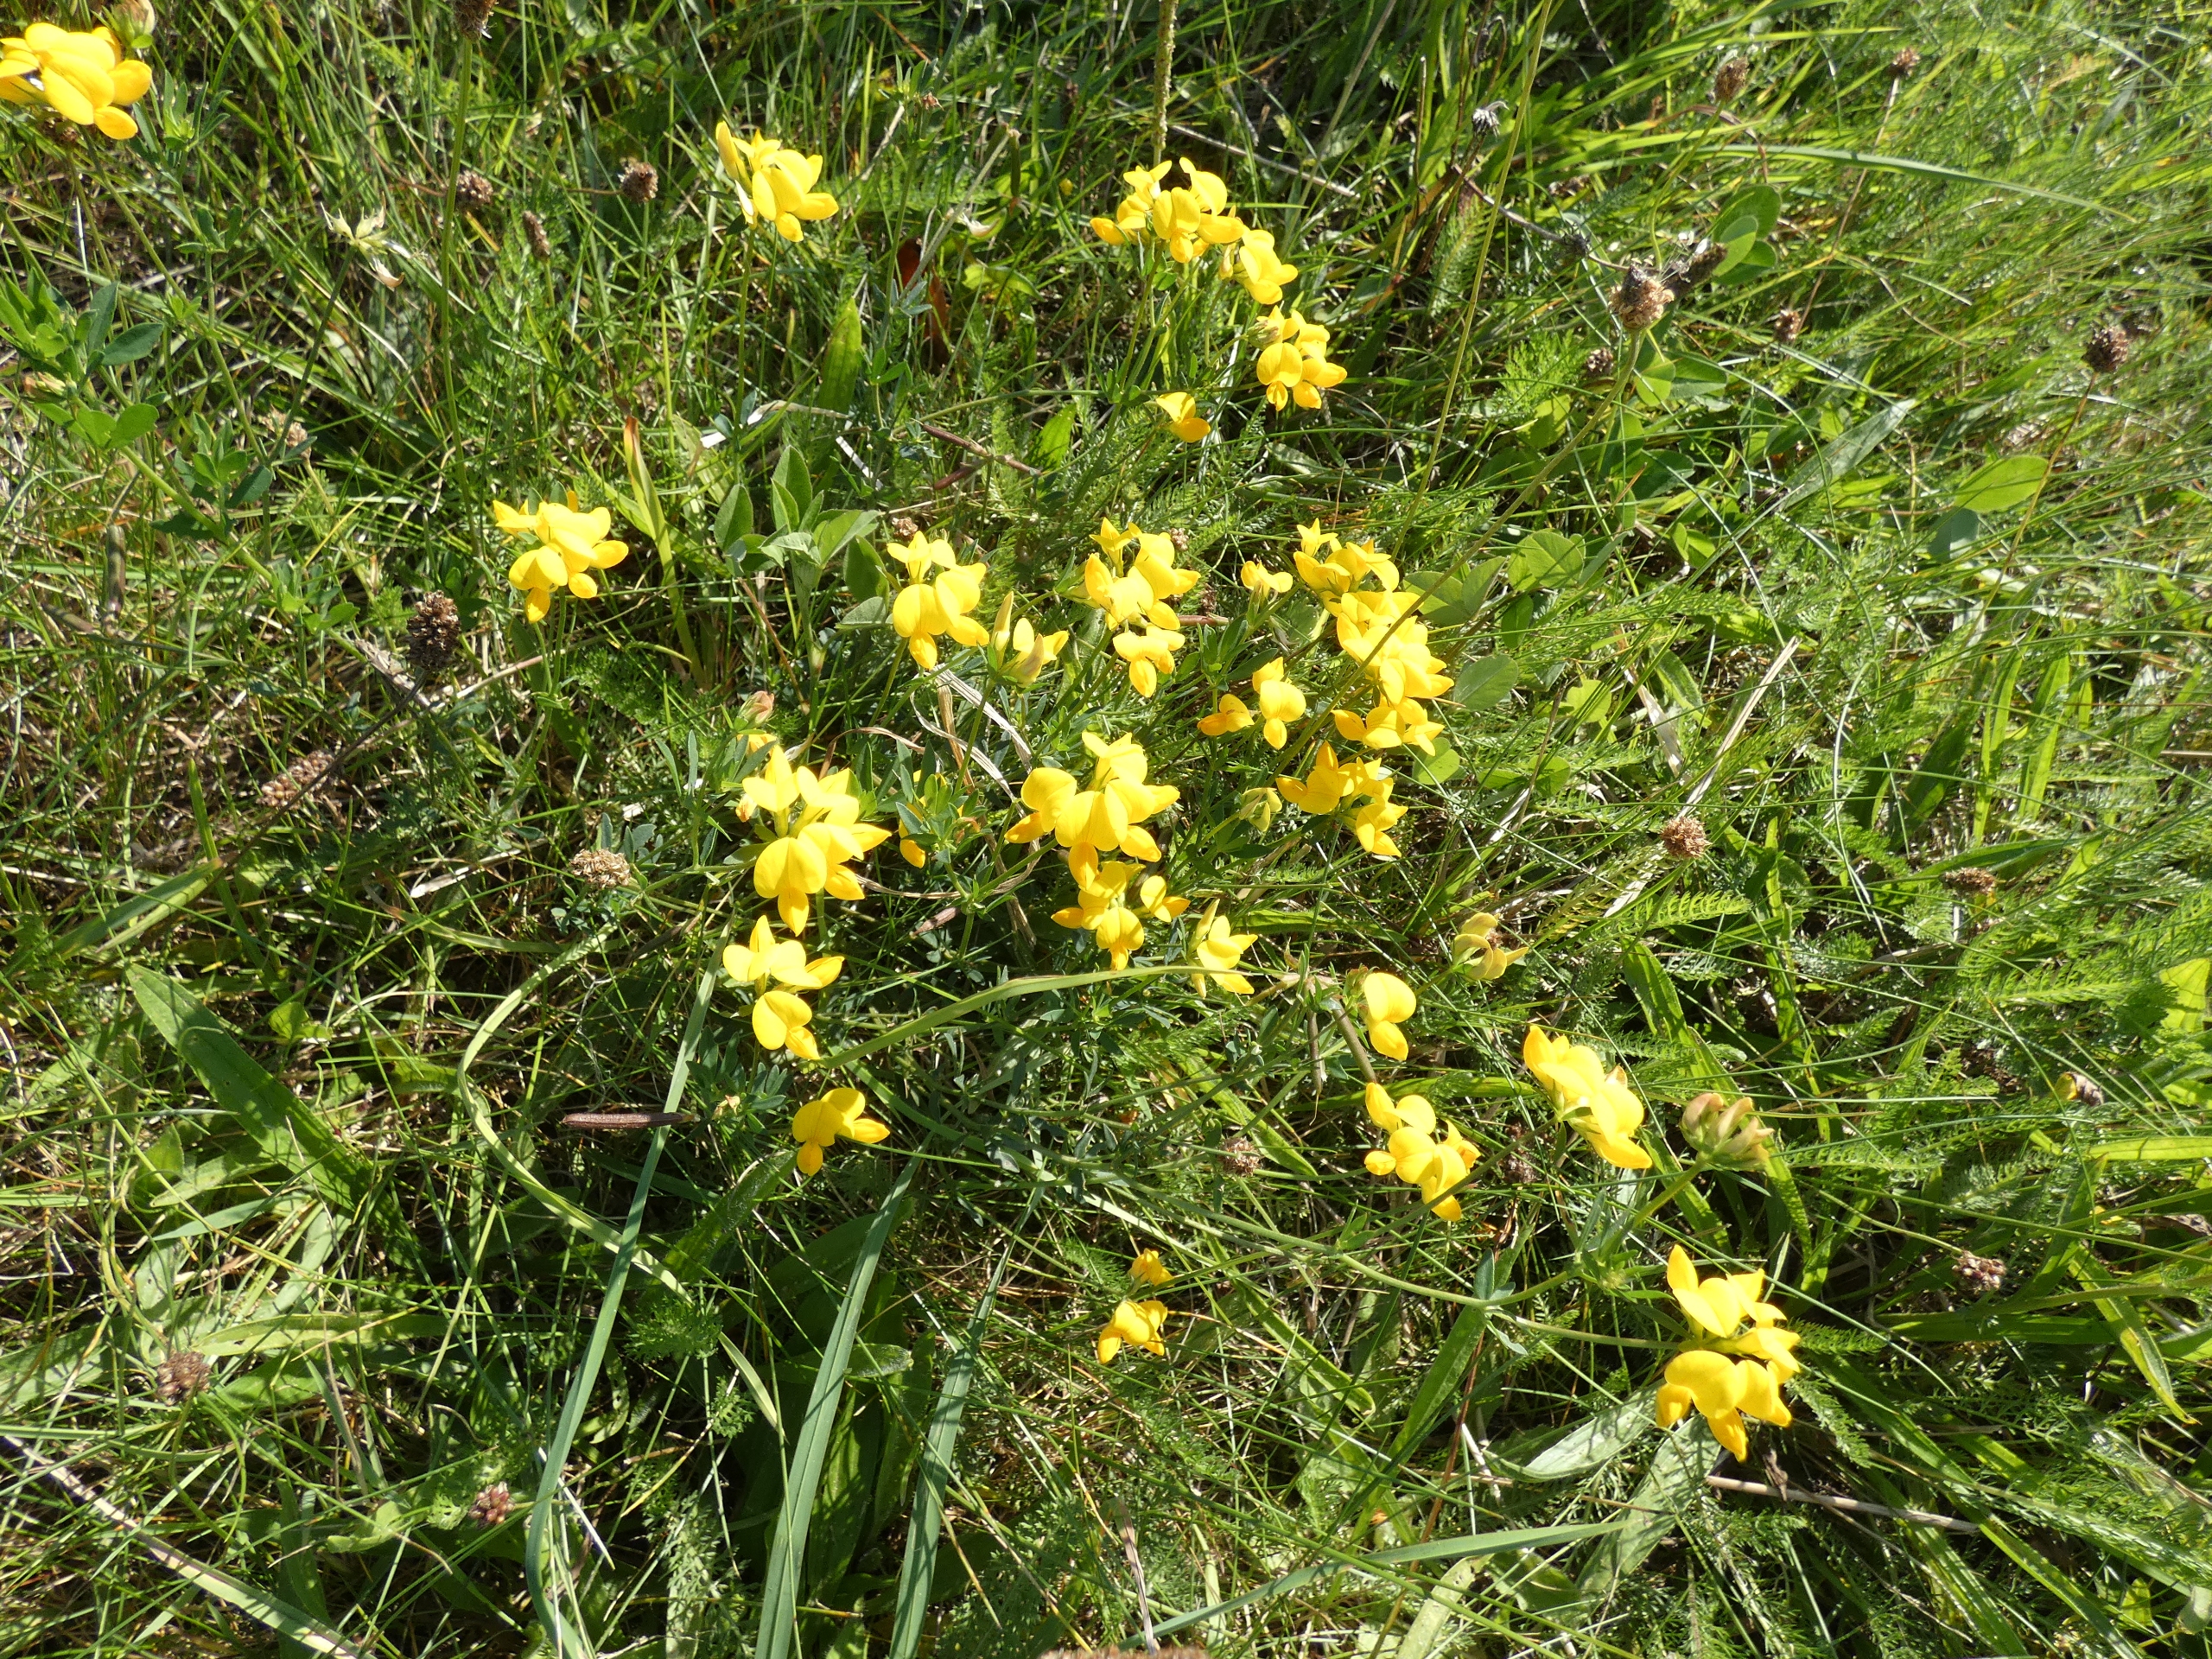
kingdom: Plantae
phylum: Tracheophyta
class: Magnoliopsida
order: Fabales
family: Fabaceae
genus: Lotus
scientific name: Lotus corniculatus
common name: Almindelig kællingetand
